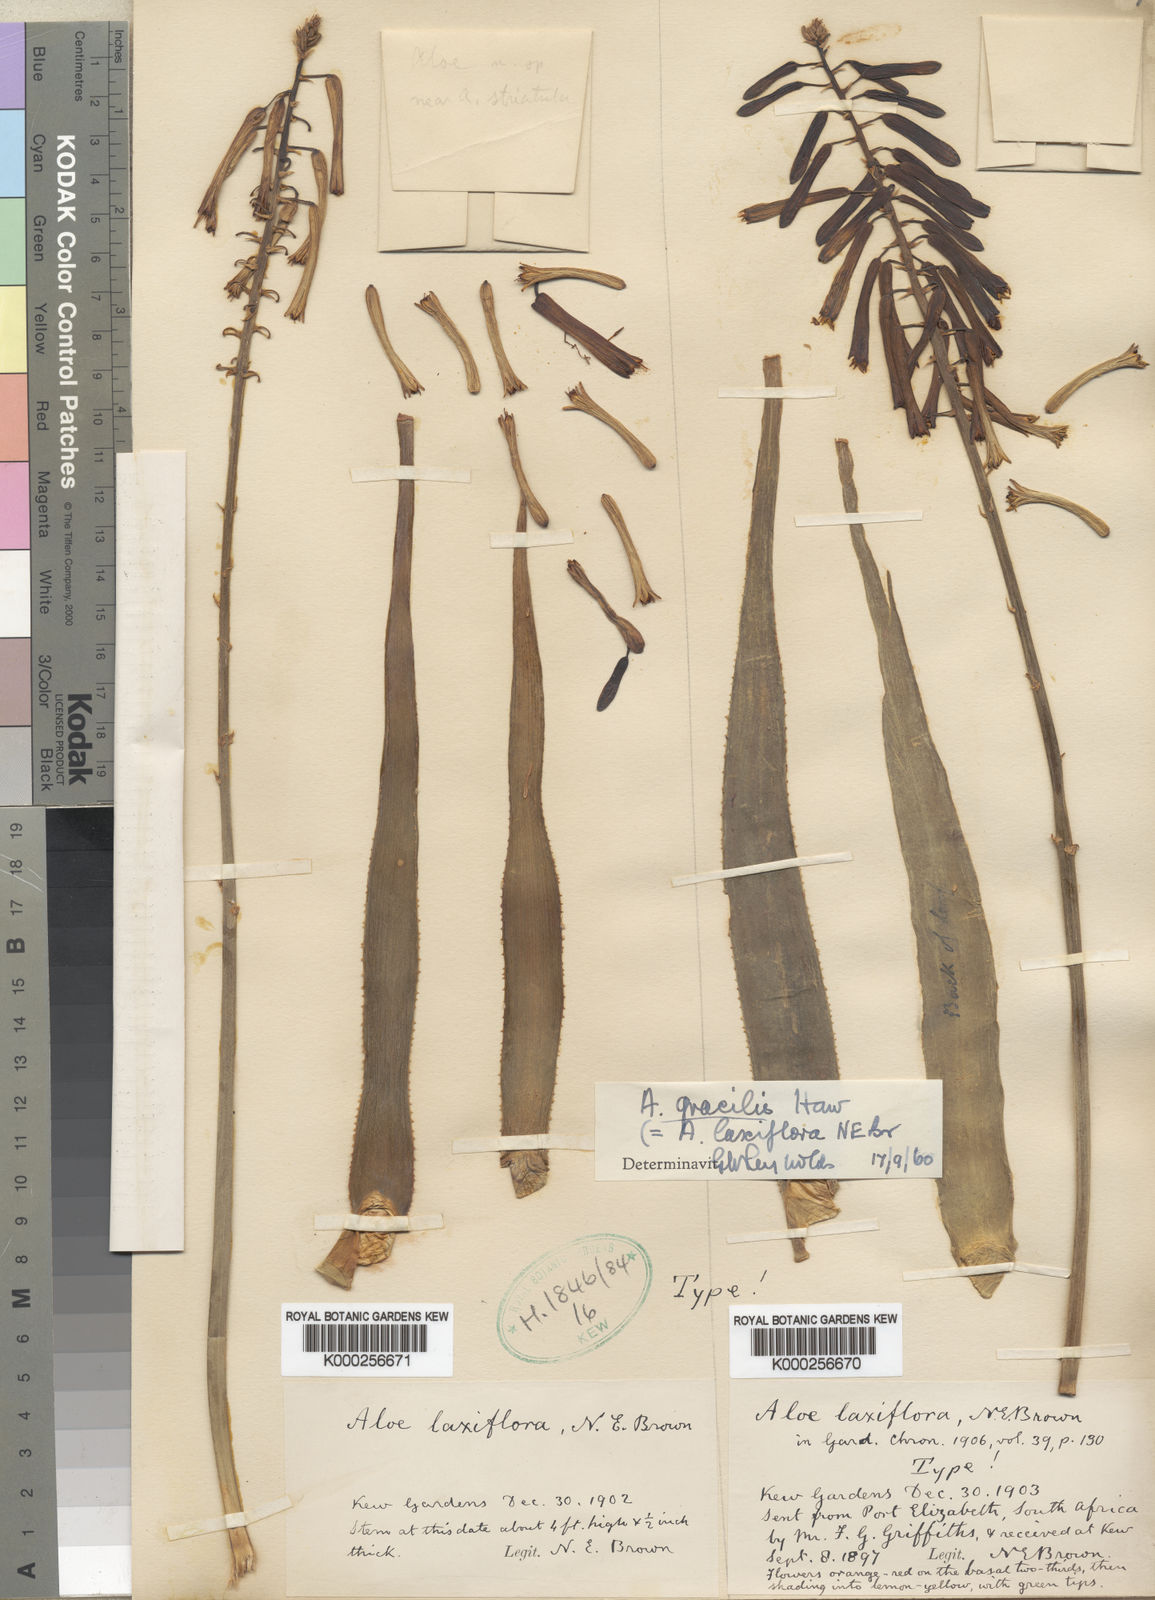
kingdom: Plantae
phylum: Tracheophyta
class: Liliopsida
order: Asparagales
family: Asphodelaceae
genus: Aloiampelos
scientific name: Aloiampelos gracilis
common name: Scrambling aloe
